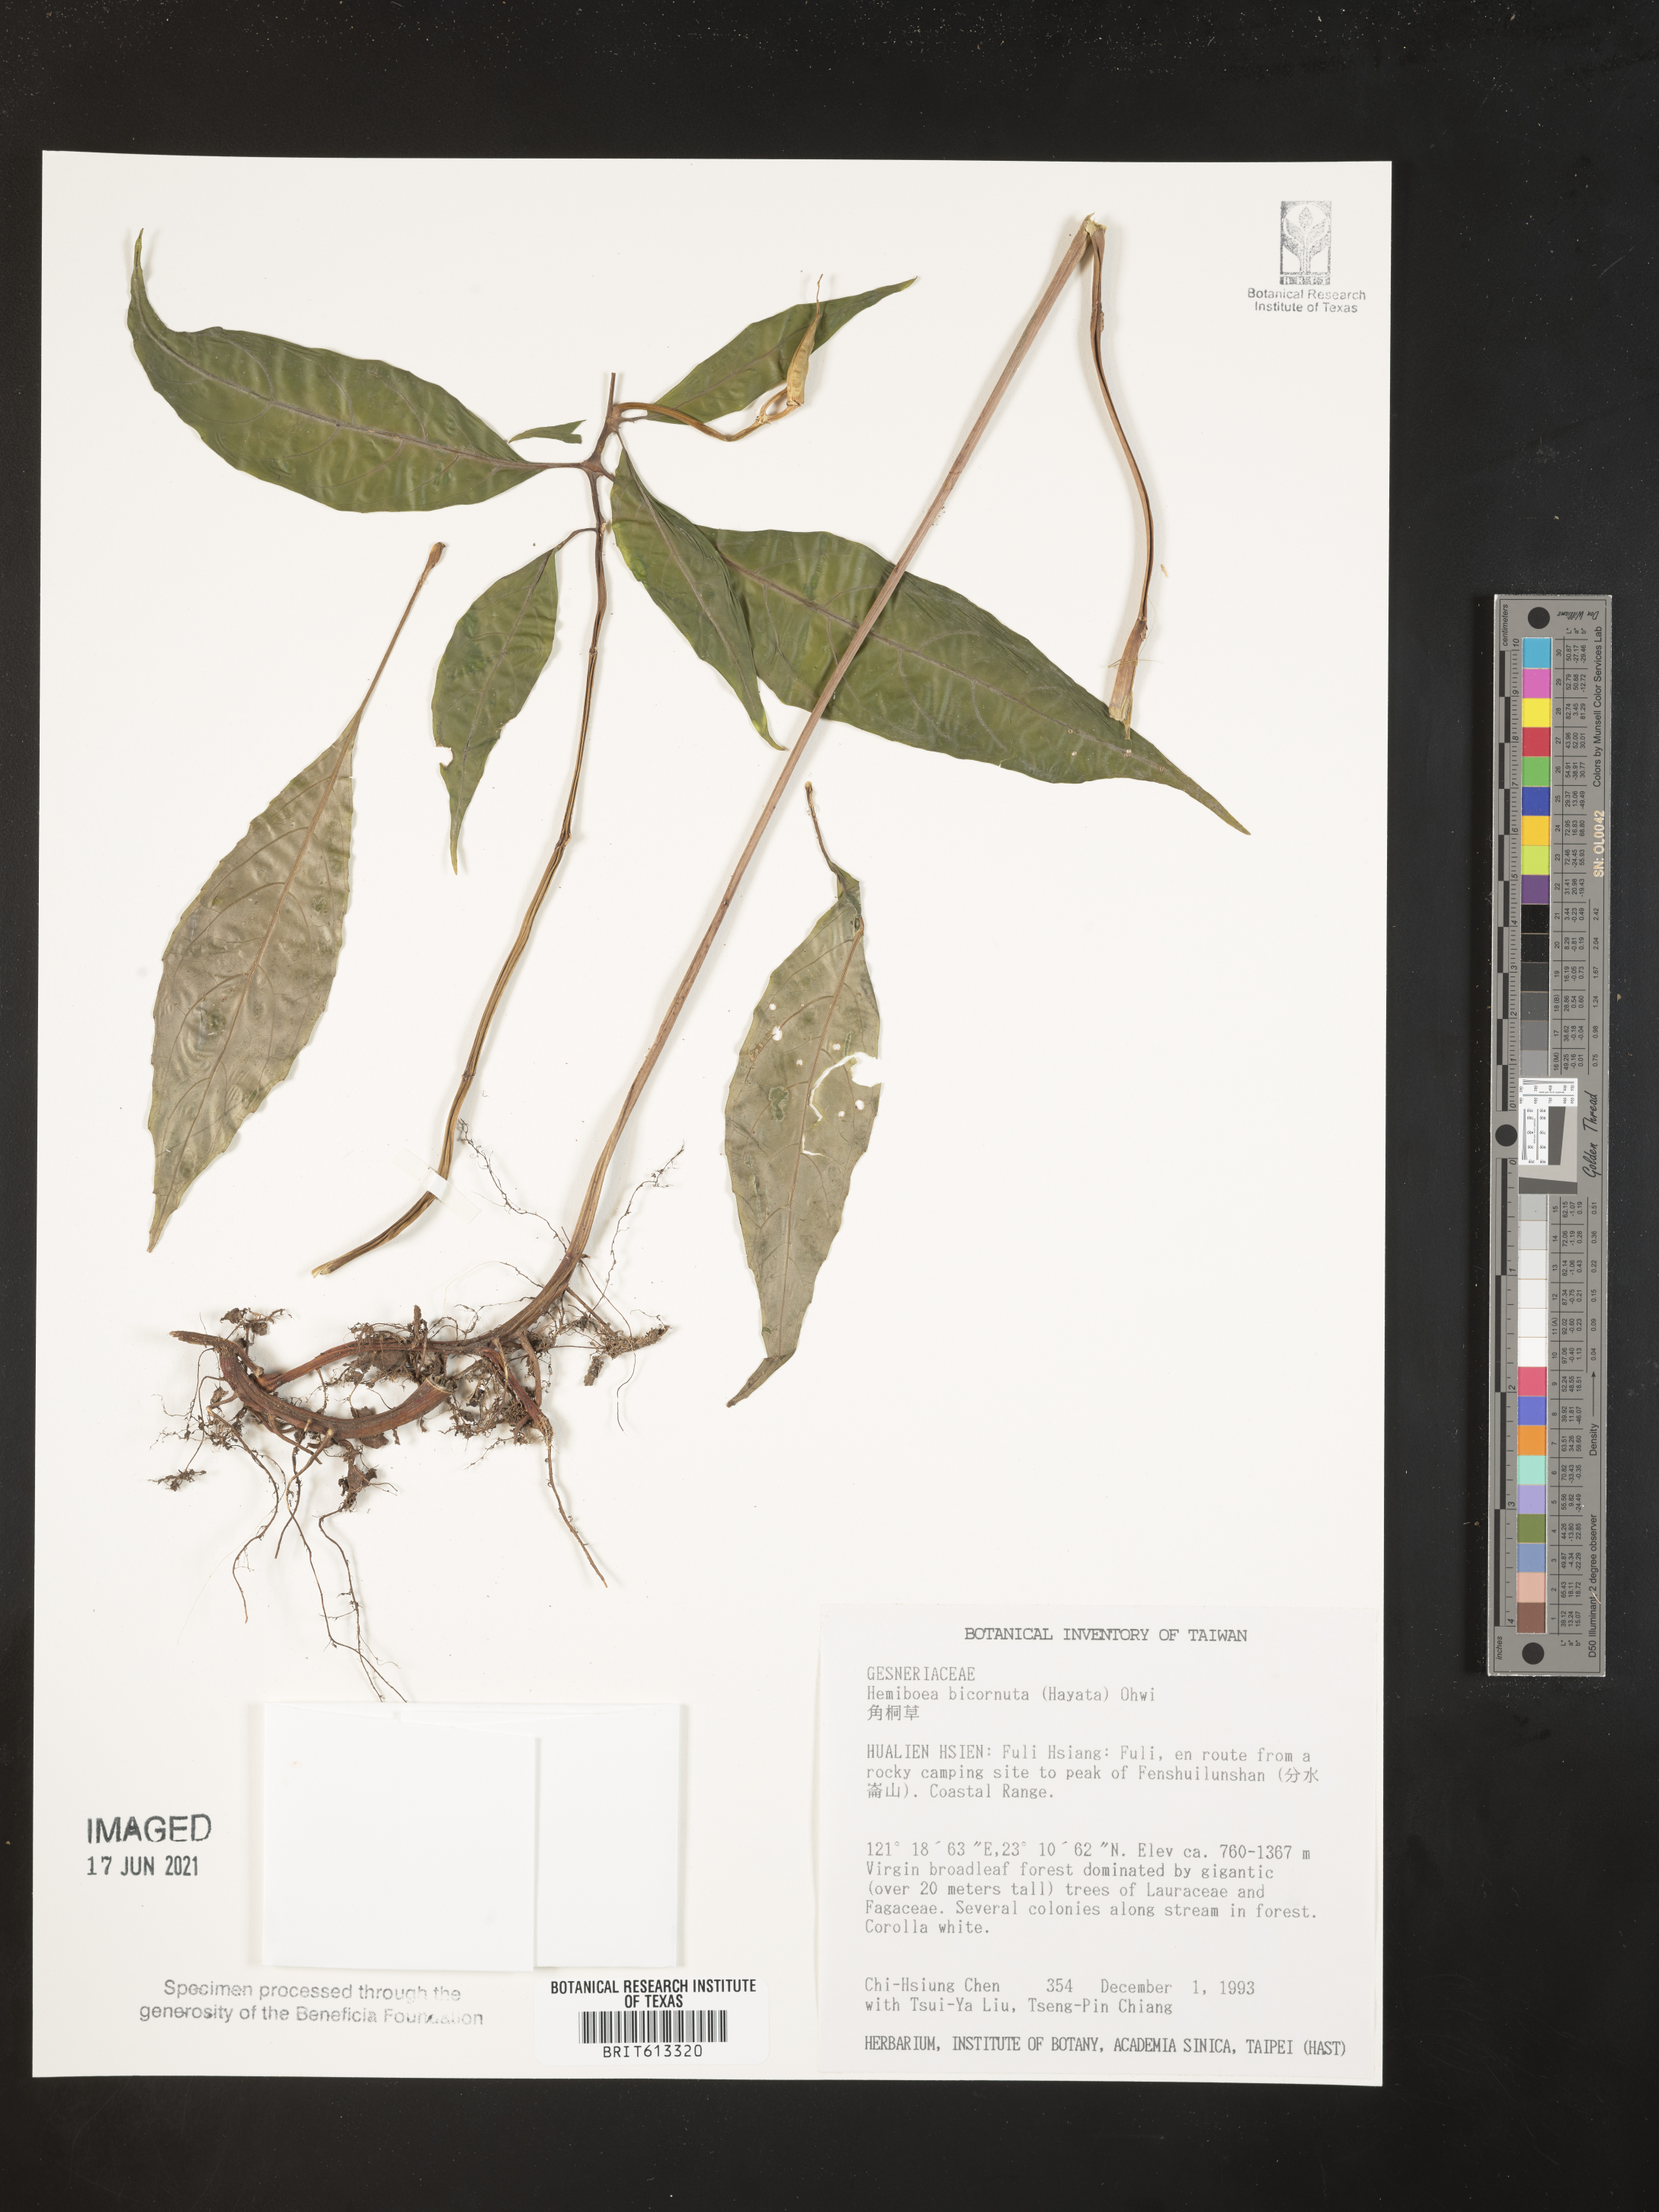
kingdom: Plantae
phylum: Tracheophyta
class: Magnoliopsida
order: Lamiales
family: Gesneriaceae
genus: Hemiboea
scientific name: Hemiboea bicornuta
